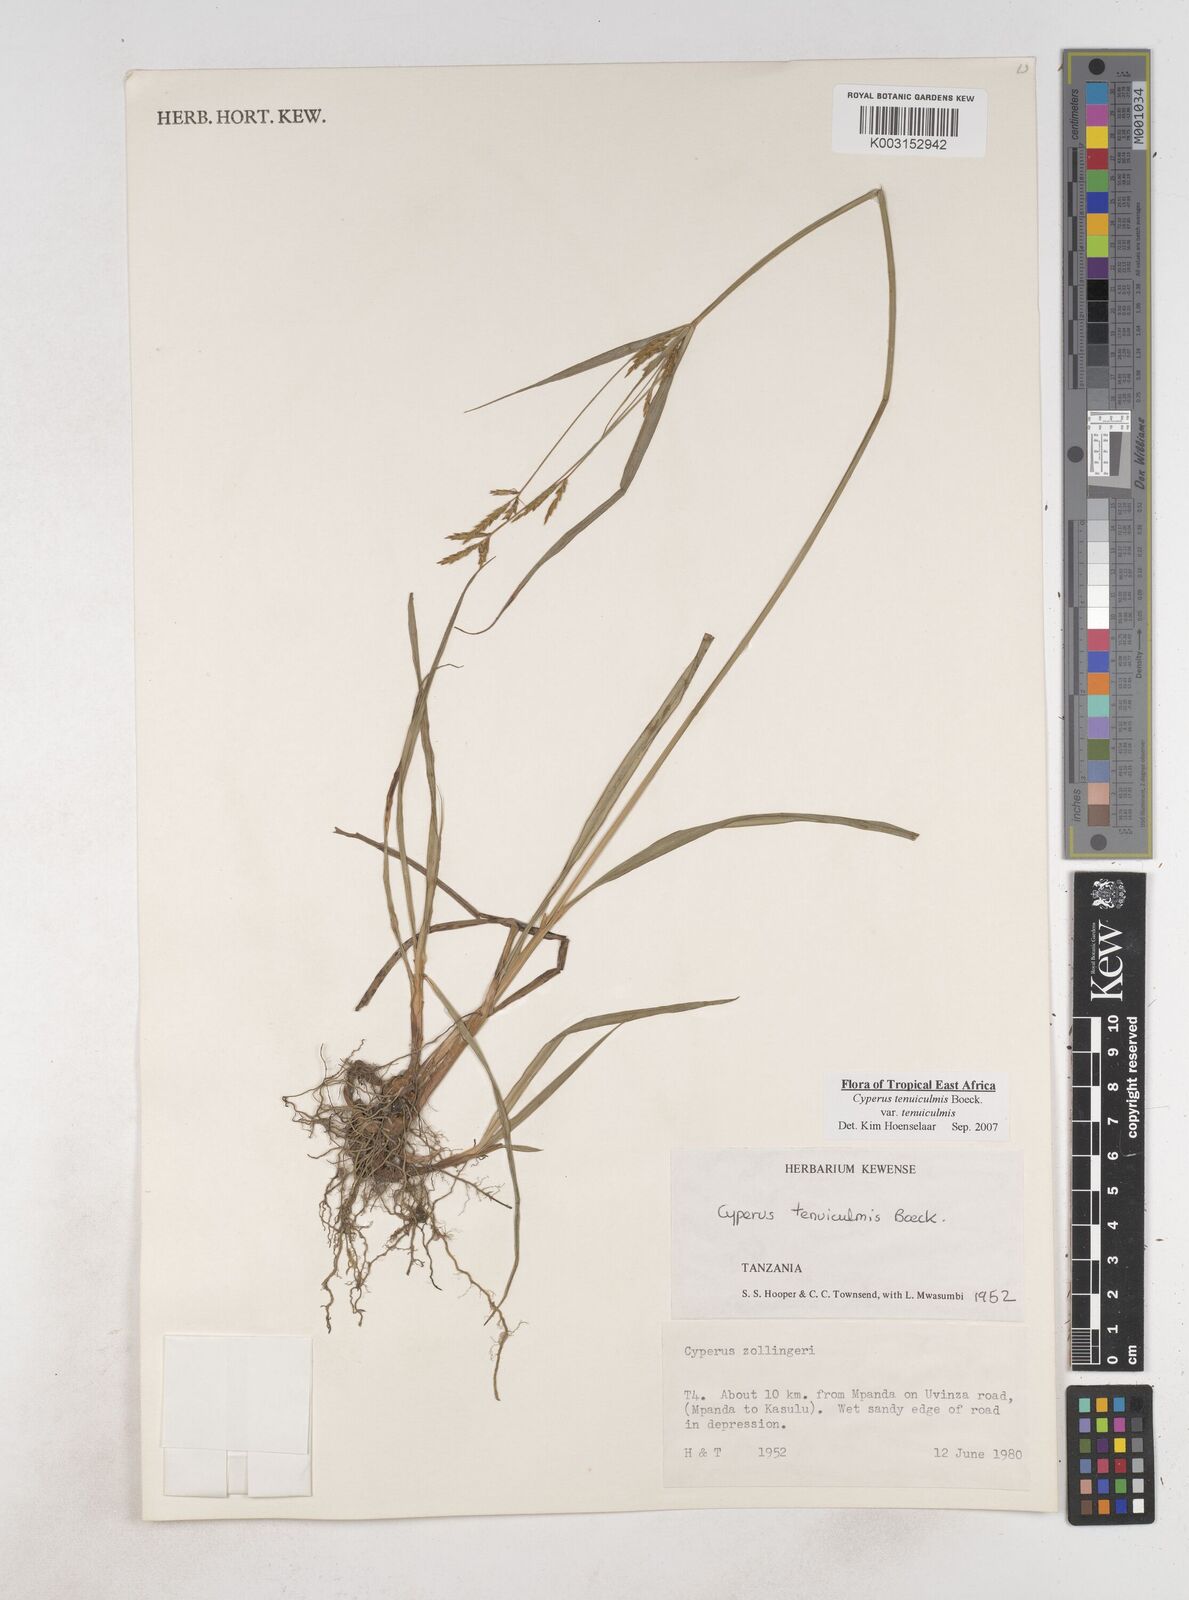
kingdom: Plantae
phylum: Tracheophyta
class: Liliopsida
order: Poales
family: Cyperaceae
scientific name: Cyperaceae
